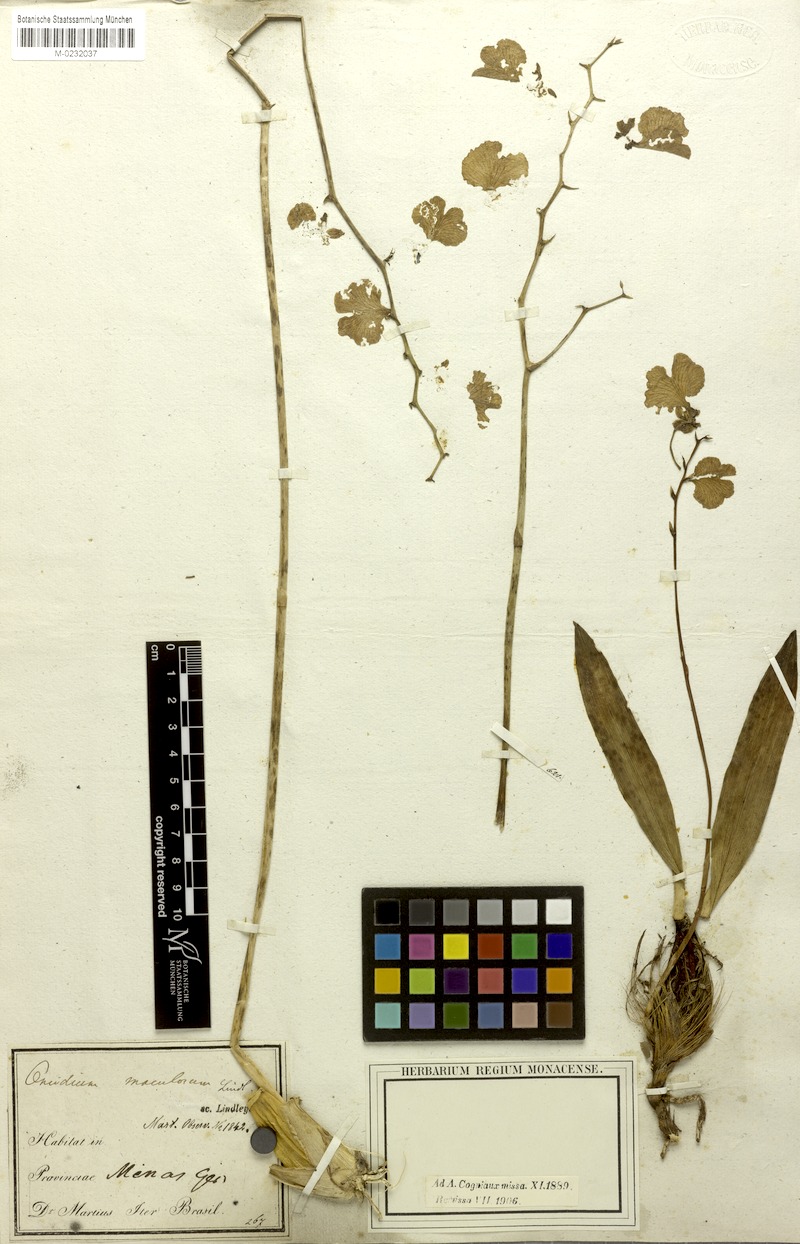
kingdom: Plantae
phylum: Tracheophyta
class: Liliopsida
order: Asparagales
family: Orchidaceae
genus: Gomesa
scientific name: Gomesa bifolia
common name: Dancing ladies
